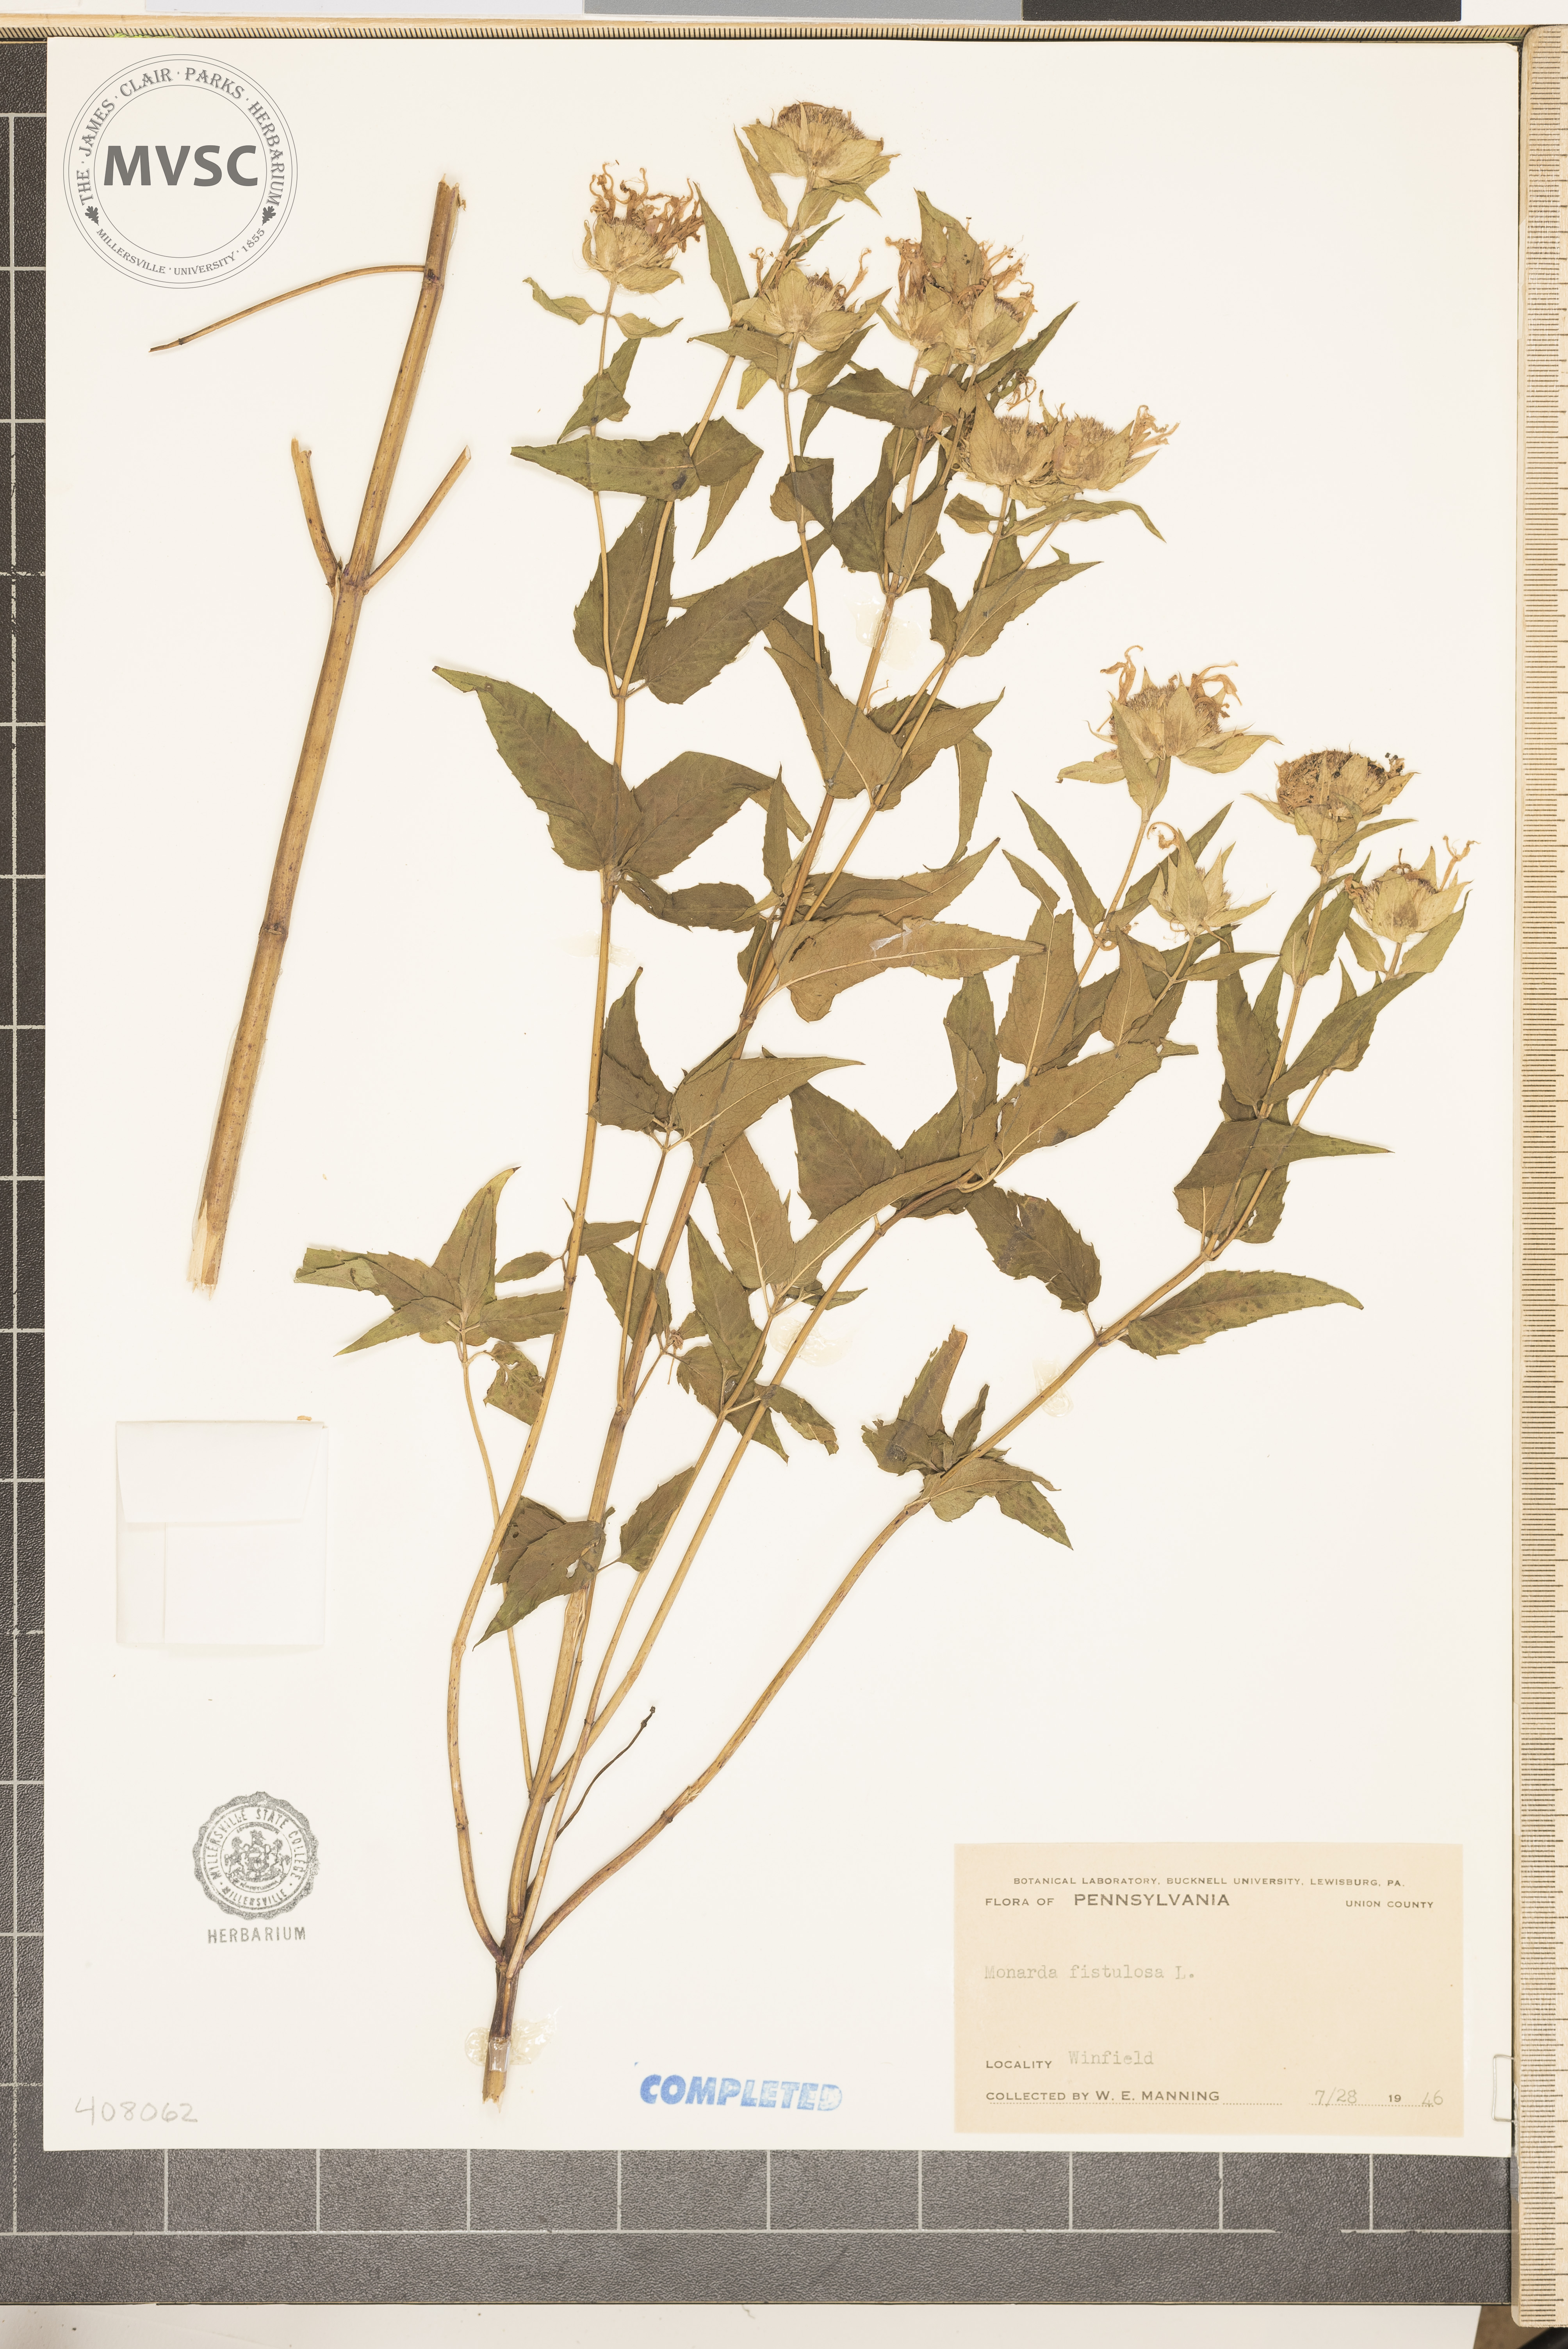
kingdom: Plantae
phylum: Tracheophyta
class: Magnoliopsida
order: Lamiales
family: Lamiaceae
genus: Monarda
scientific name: Monarda fistulosa
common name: Purple beebalm
